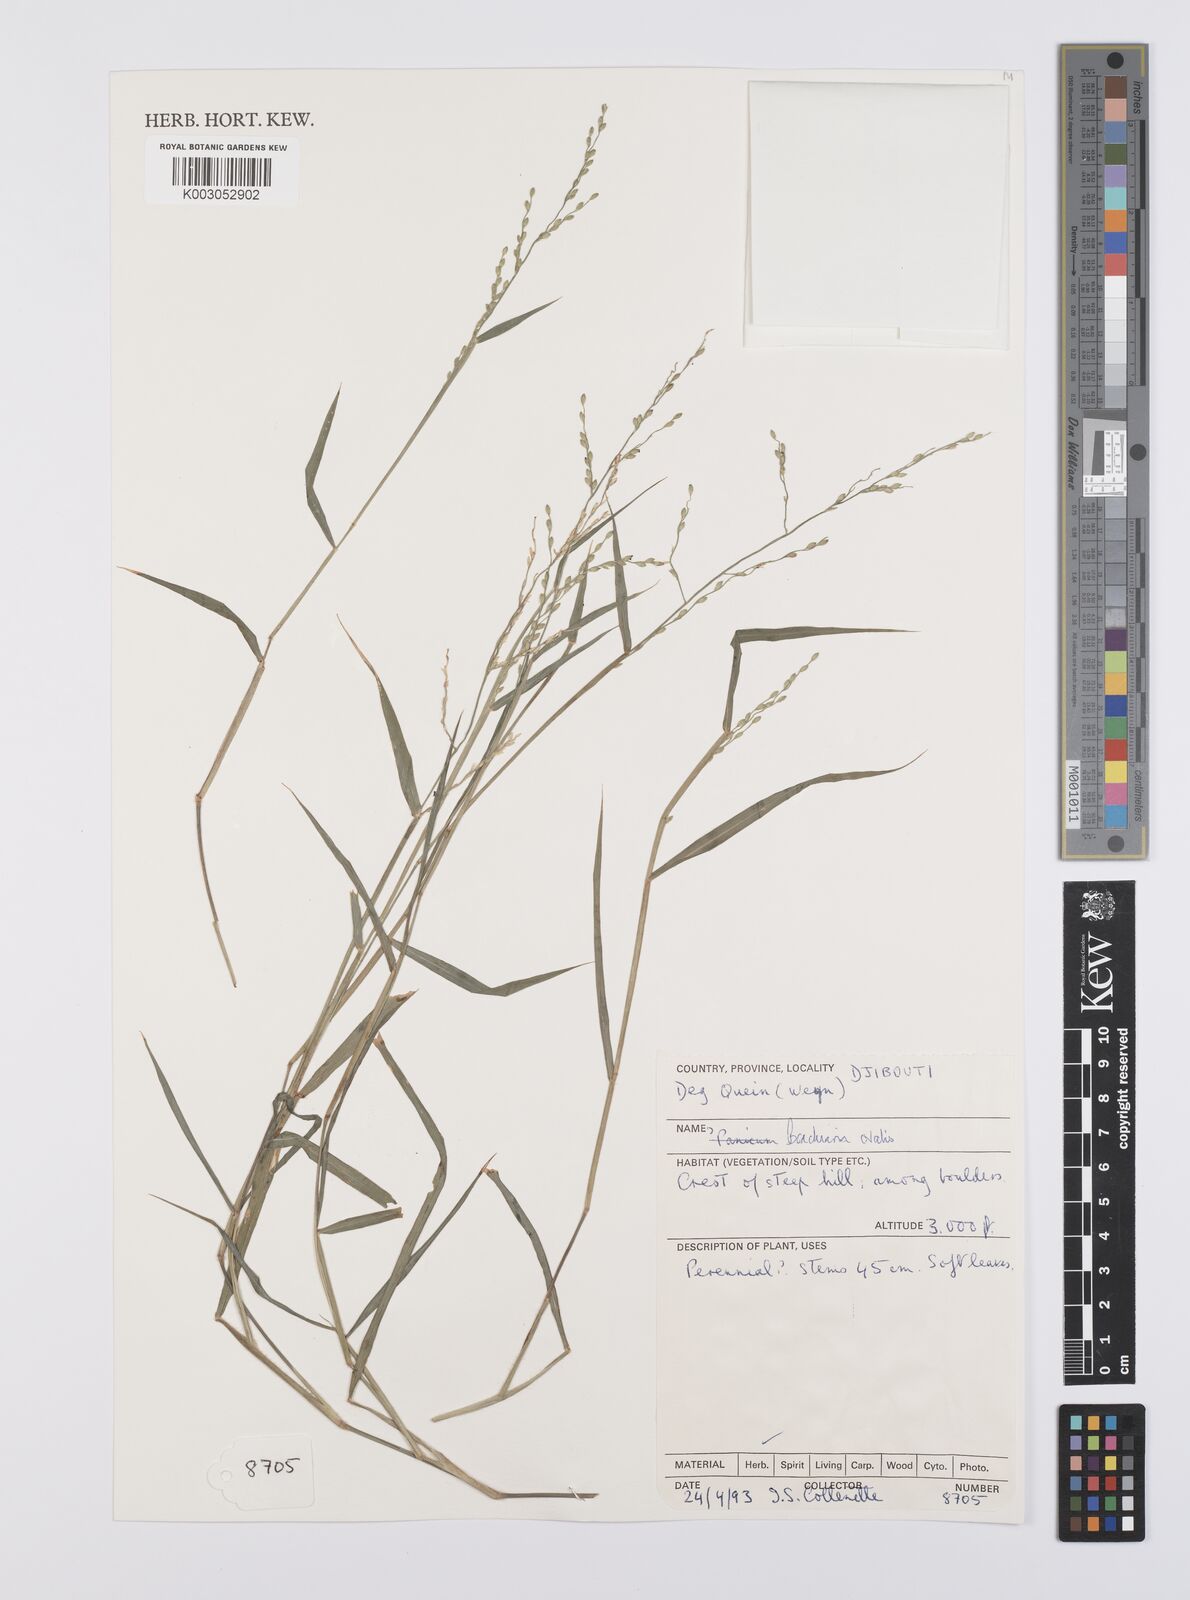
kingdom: Plantae
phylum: Tracheophyta
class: Liliopsida
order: Poales
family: Poaceae
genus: Urochloa
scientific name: Urochloa ovalis
